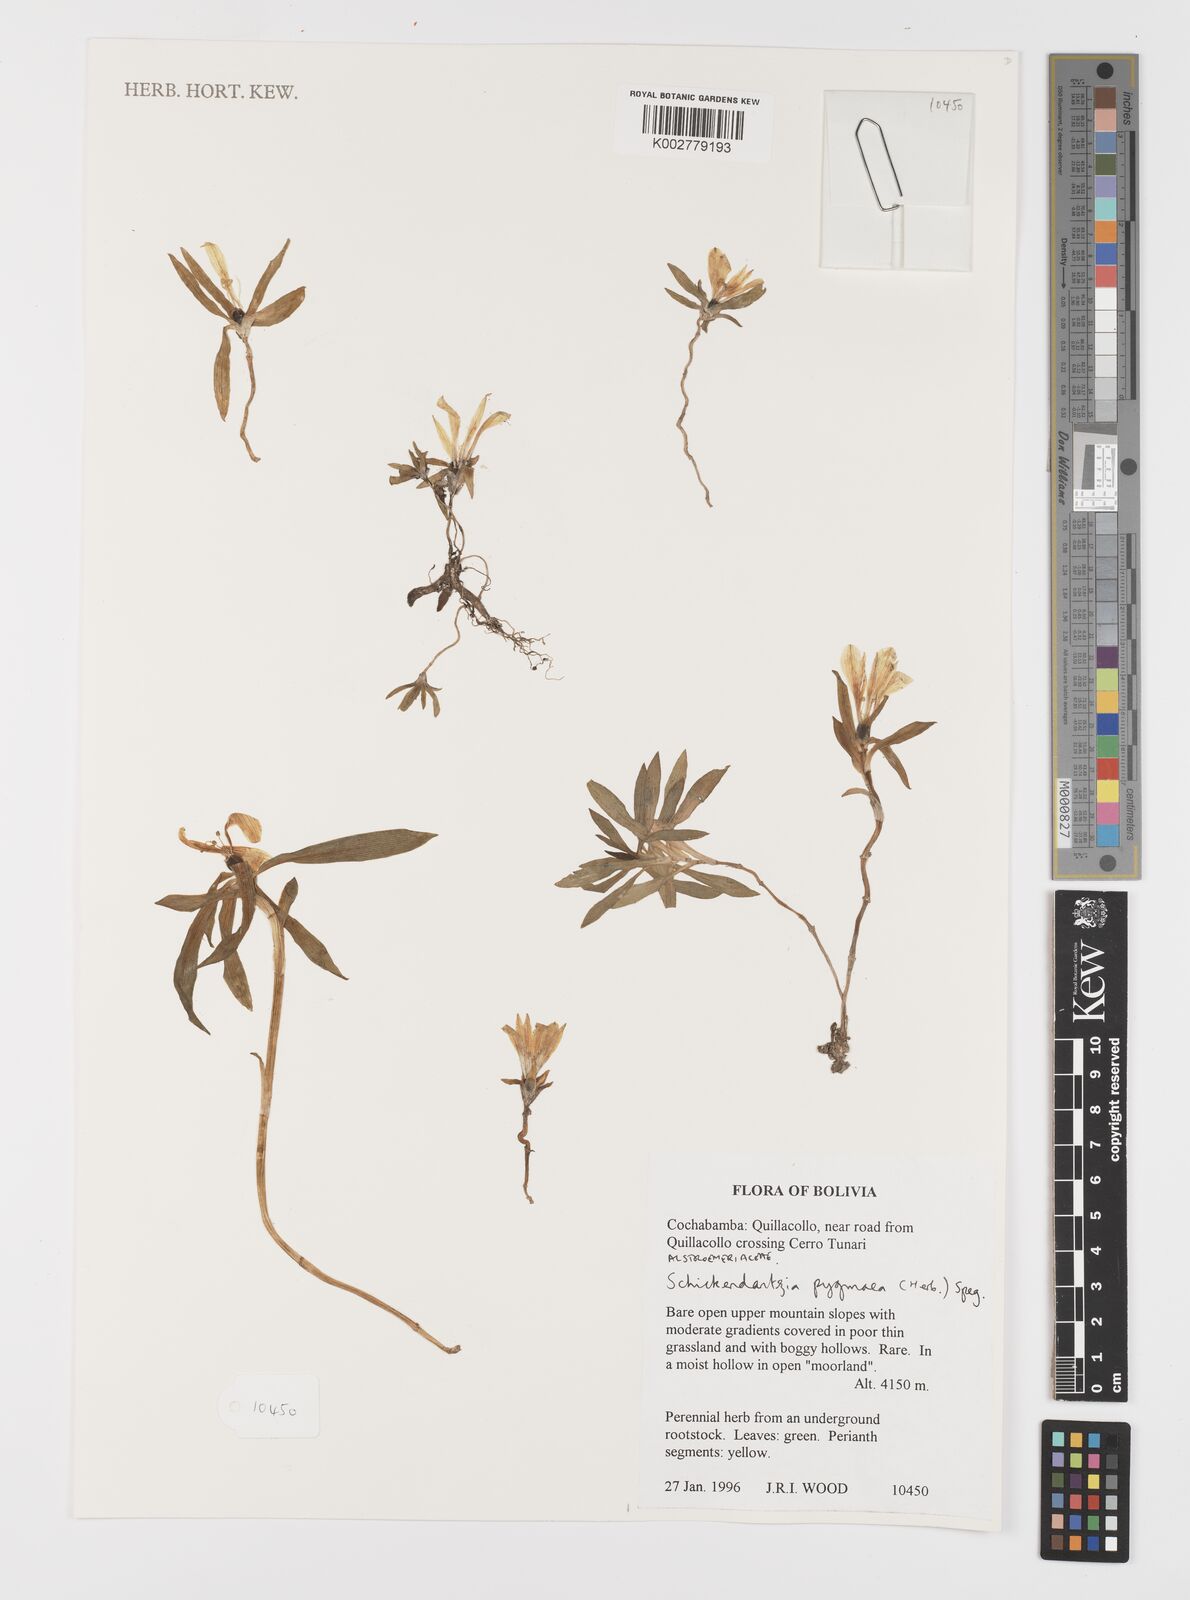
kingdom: Plantae
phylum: Tracheophyta
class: Liliopsida
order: Liliales
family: Alstroemeriaceae
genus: Alstroemeria
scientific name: Alstroemeria pygmaea
